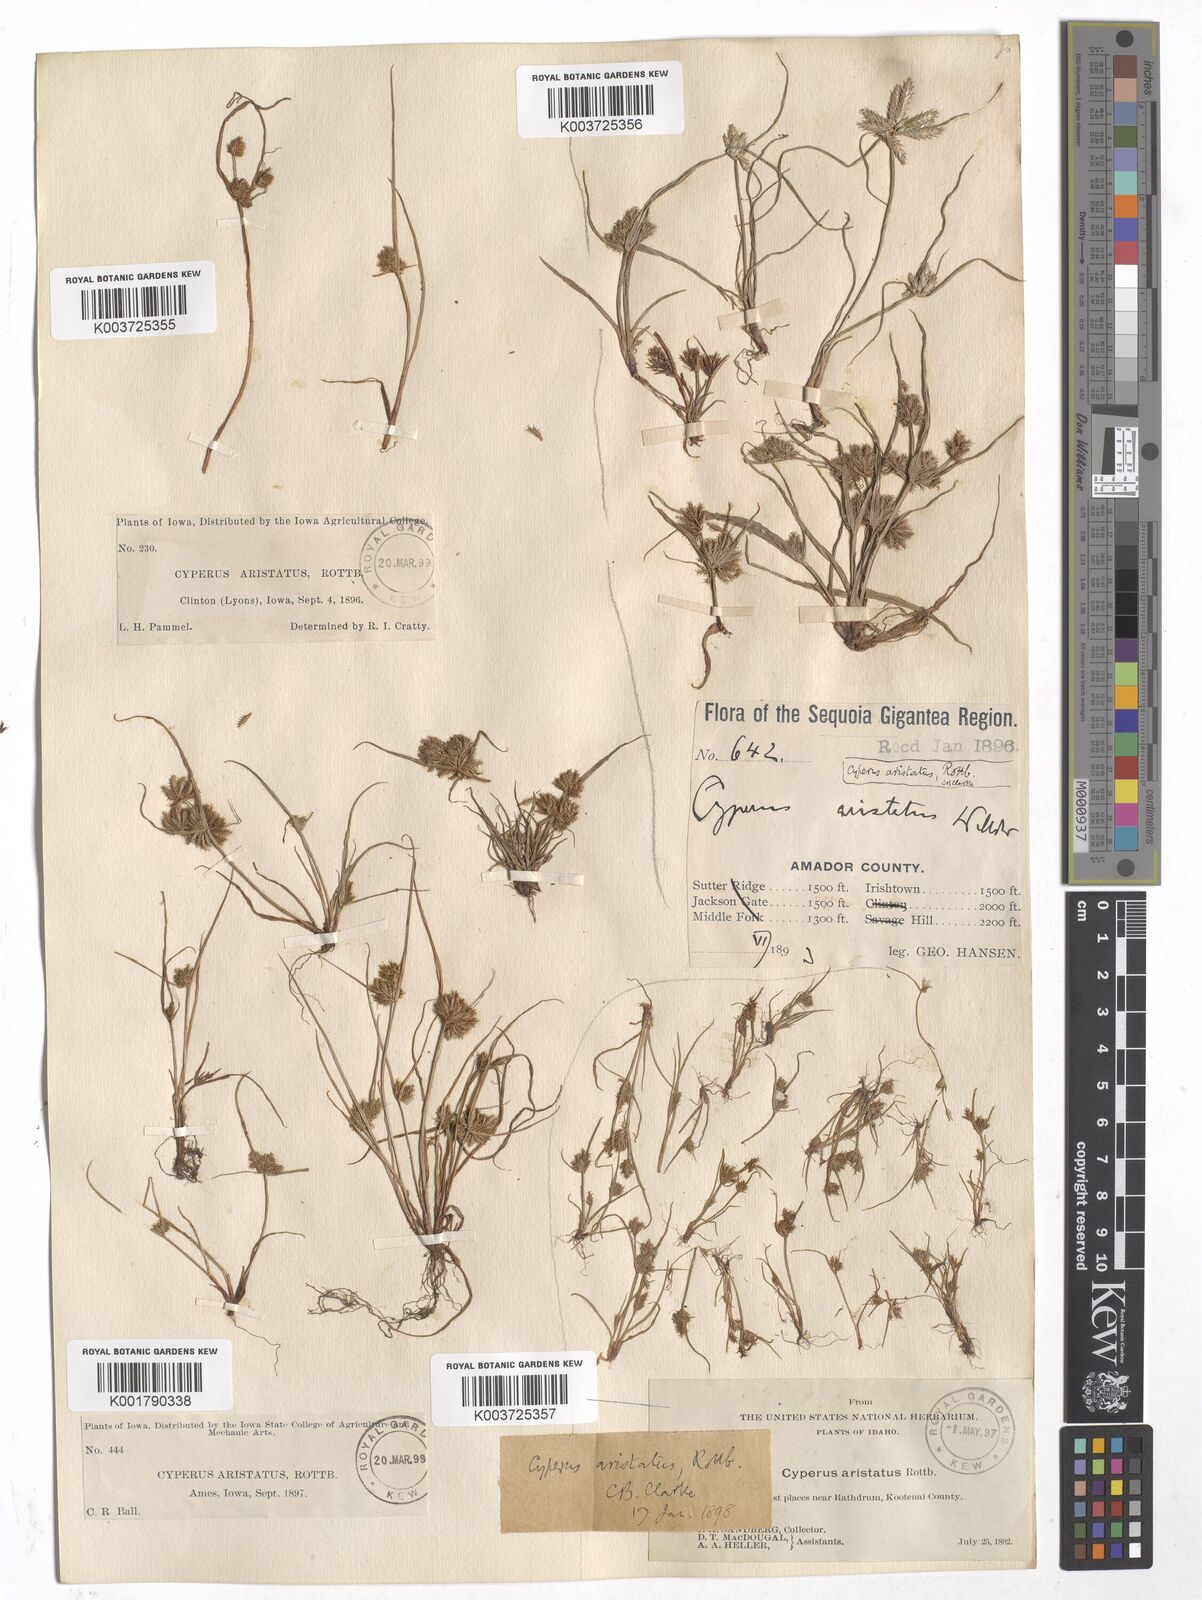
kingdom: Plantae
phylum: Tracheophyta
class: Liliopsida
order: Poales
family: Cyperaceae
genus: Cyperus
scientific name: Cyperus squarrosus
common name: Awned cyperus
